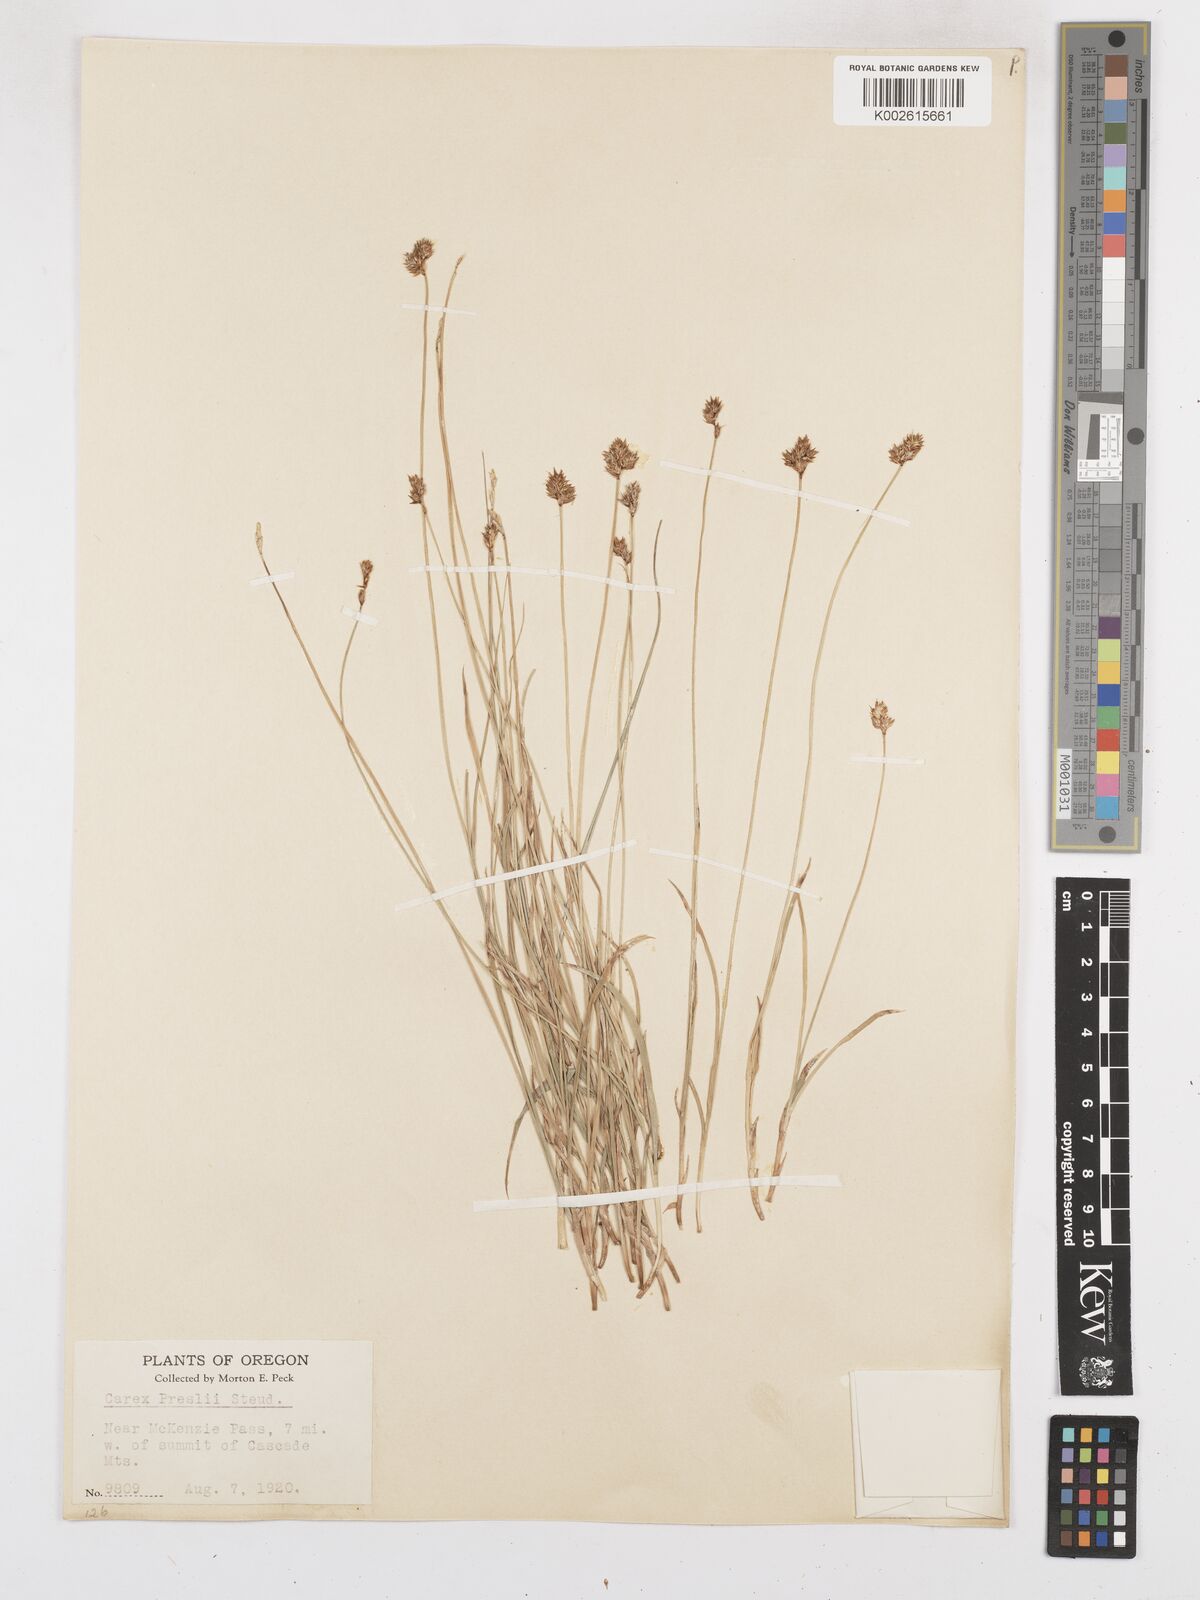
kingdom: Plantae
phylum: Tracheophyta
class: Liliopsida
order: Poales
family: Cyperaceae
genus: Carex
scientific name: Carex preslii
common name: Presl's sedge
